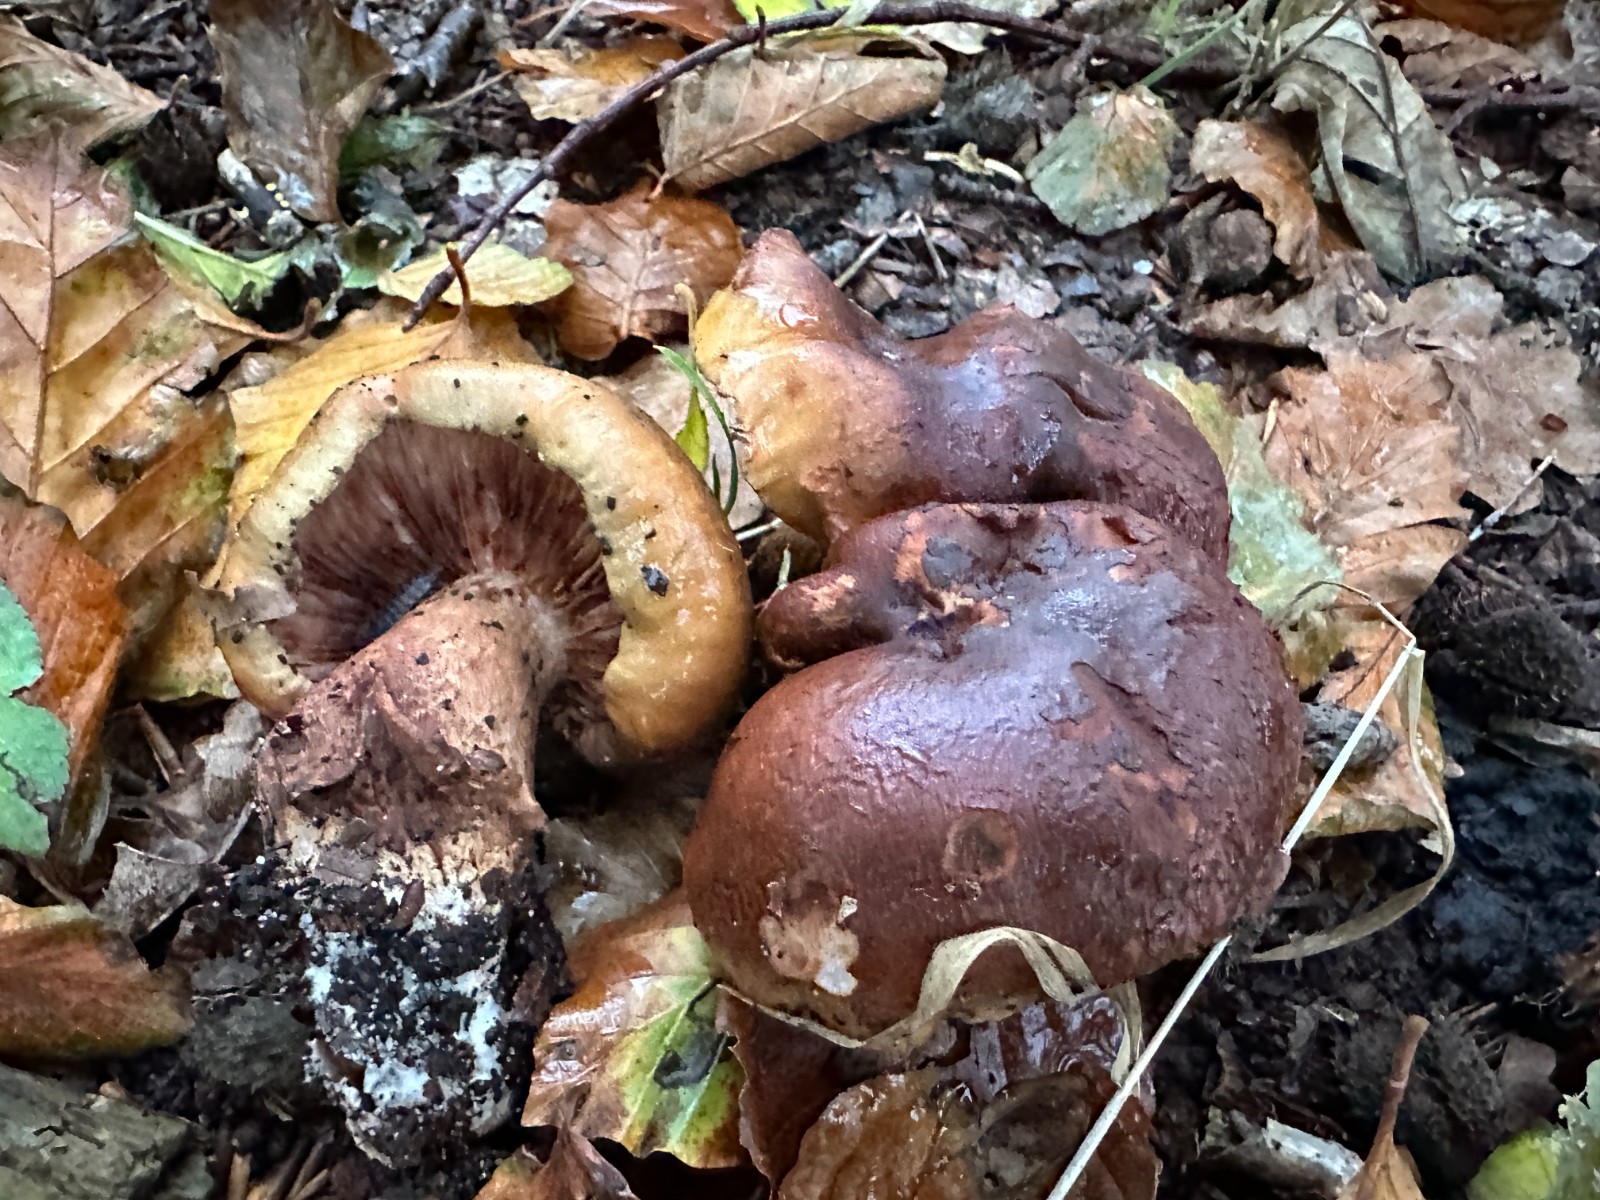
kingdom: Fungi
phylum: Basidiomycota
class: Agaricomycetes
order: Agaricales
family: Tricholomataceae
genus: Tricholoma
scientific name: Tricholoma ustale
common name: sveden ridderhat
